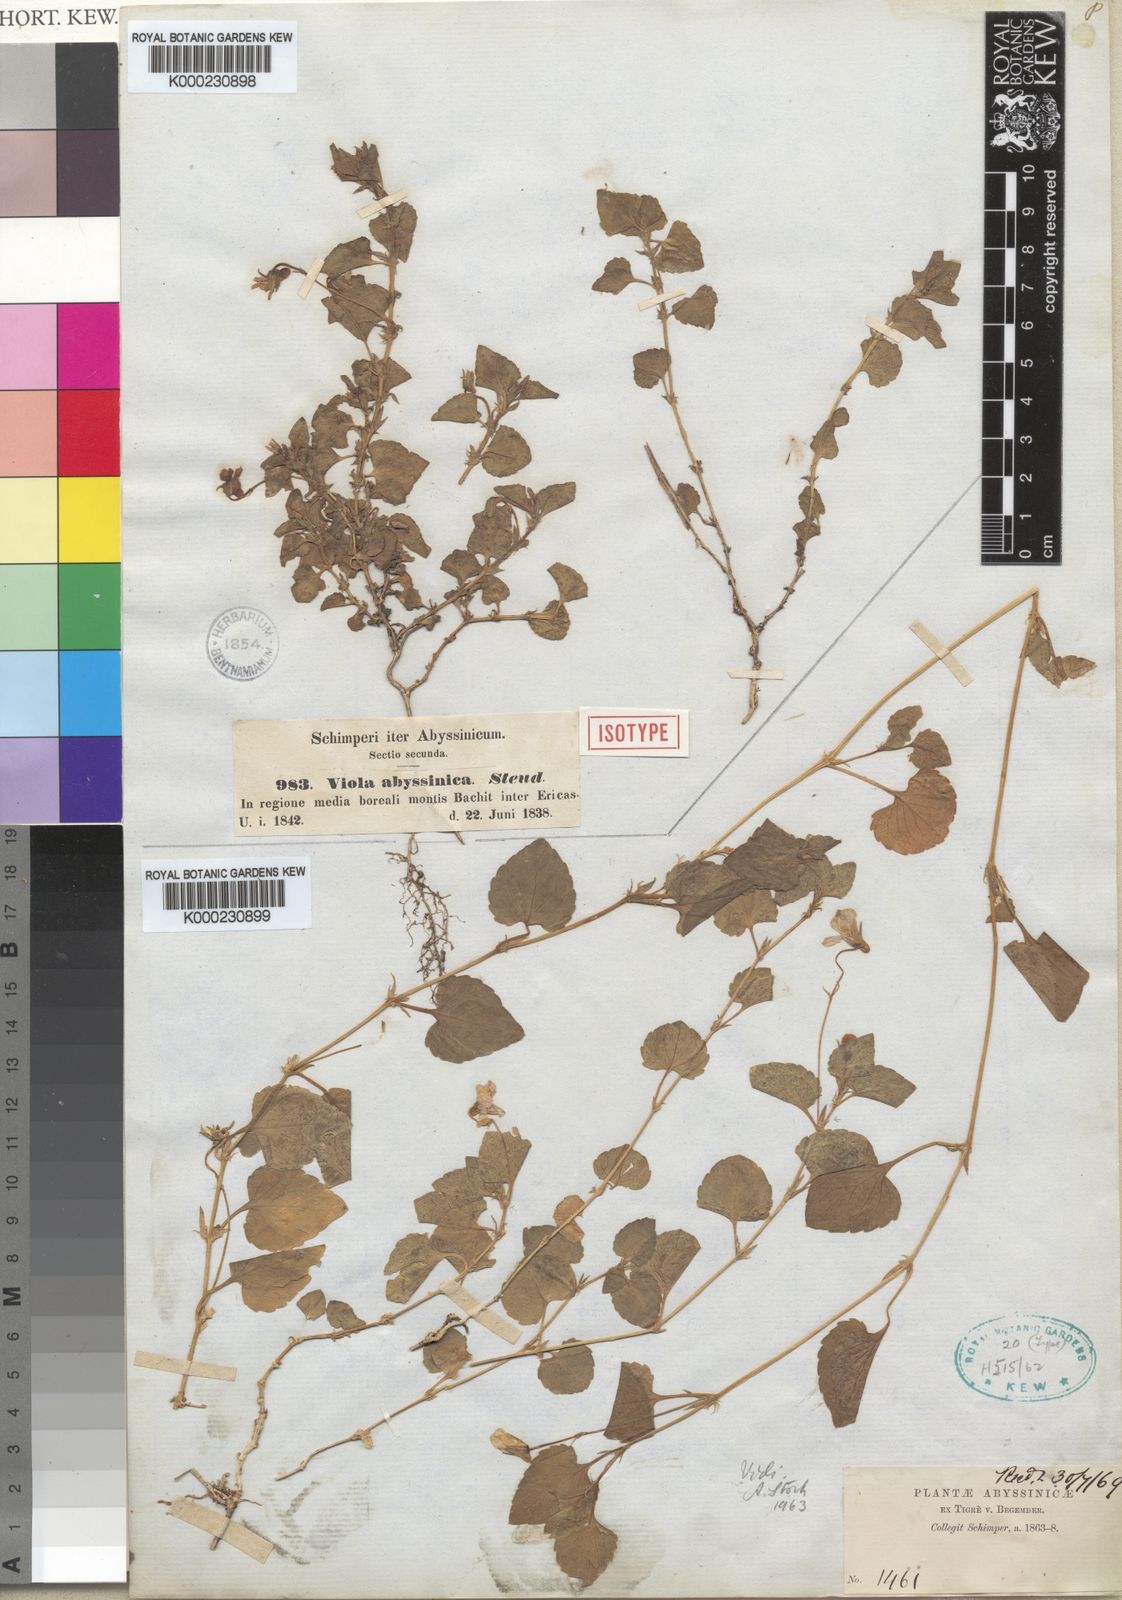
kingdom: Plantae
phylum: Tracheophyta
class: Magnoliopsida
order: Malpighiales
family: Violaceae
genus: Viola
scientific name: Viola abyssinica
